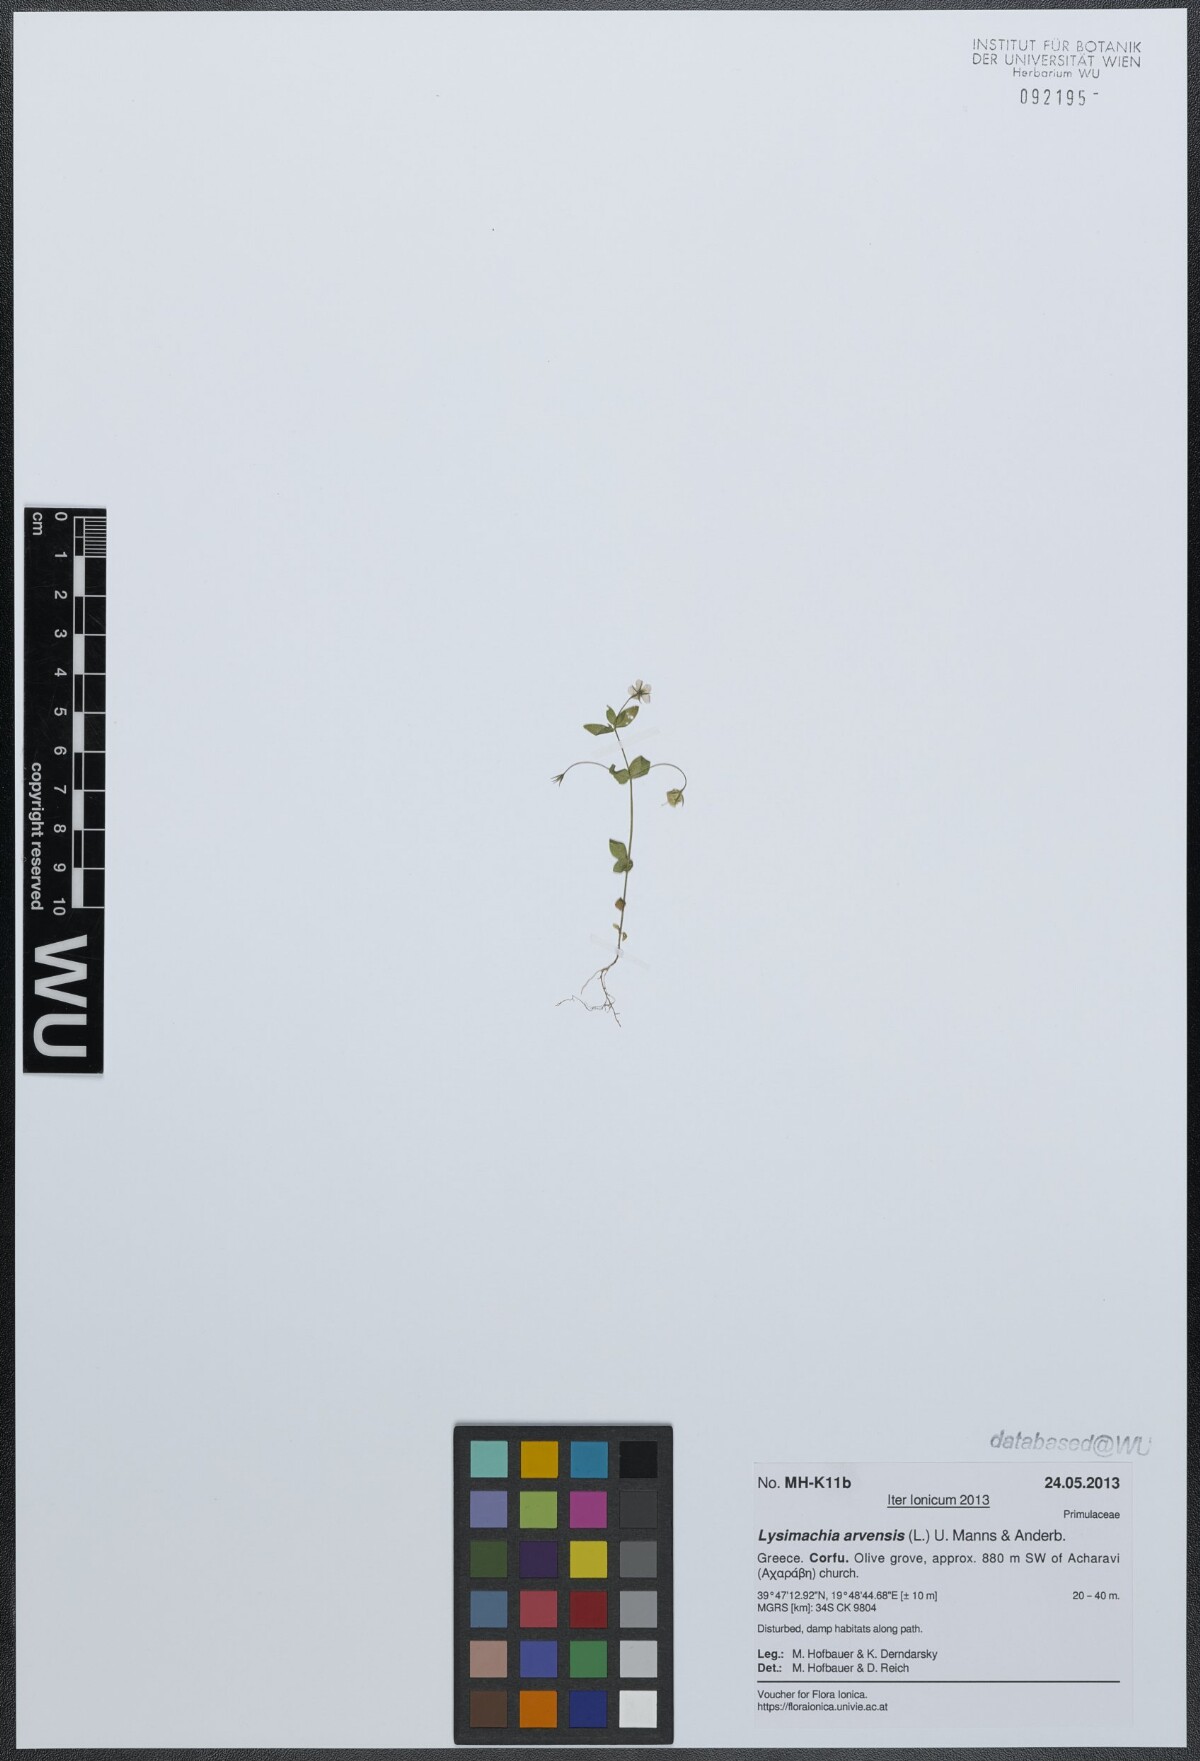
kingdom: Plantae
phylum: Tracheophyta
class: Magnoliopsida
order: Ericales
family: Primulaceae
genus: Lysimachia
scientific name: Lysimachia arvensis
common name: Scarlet pimpernel
